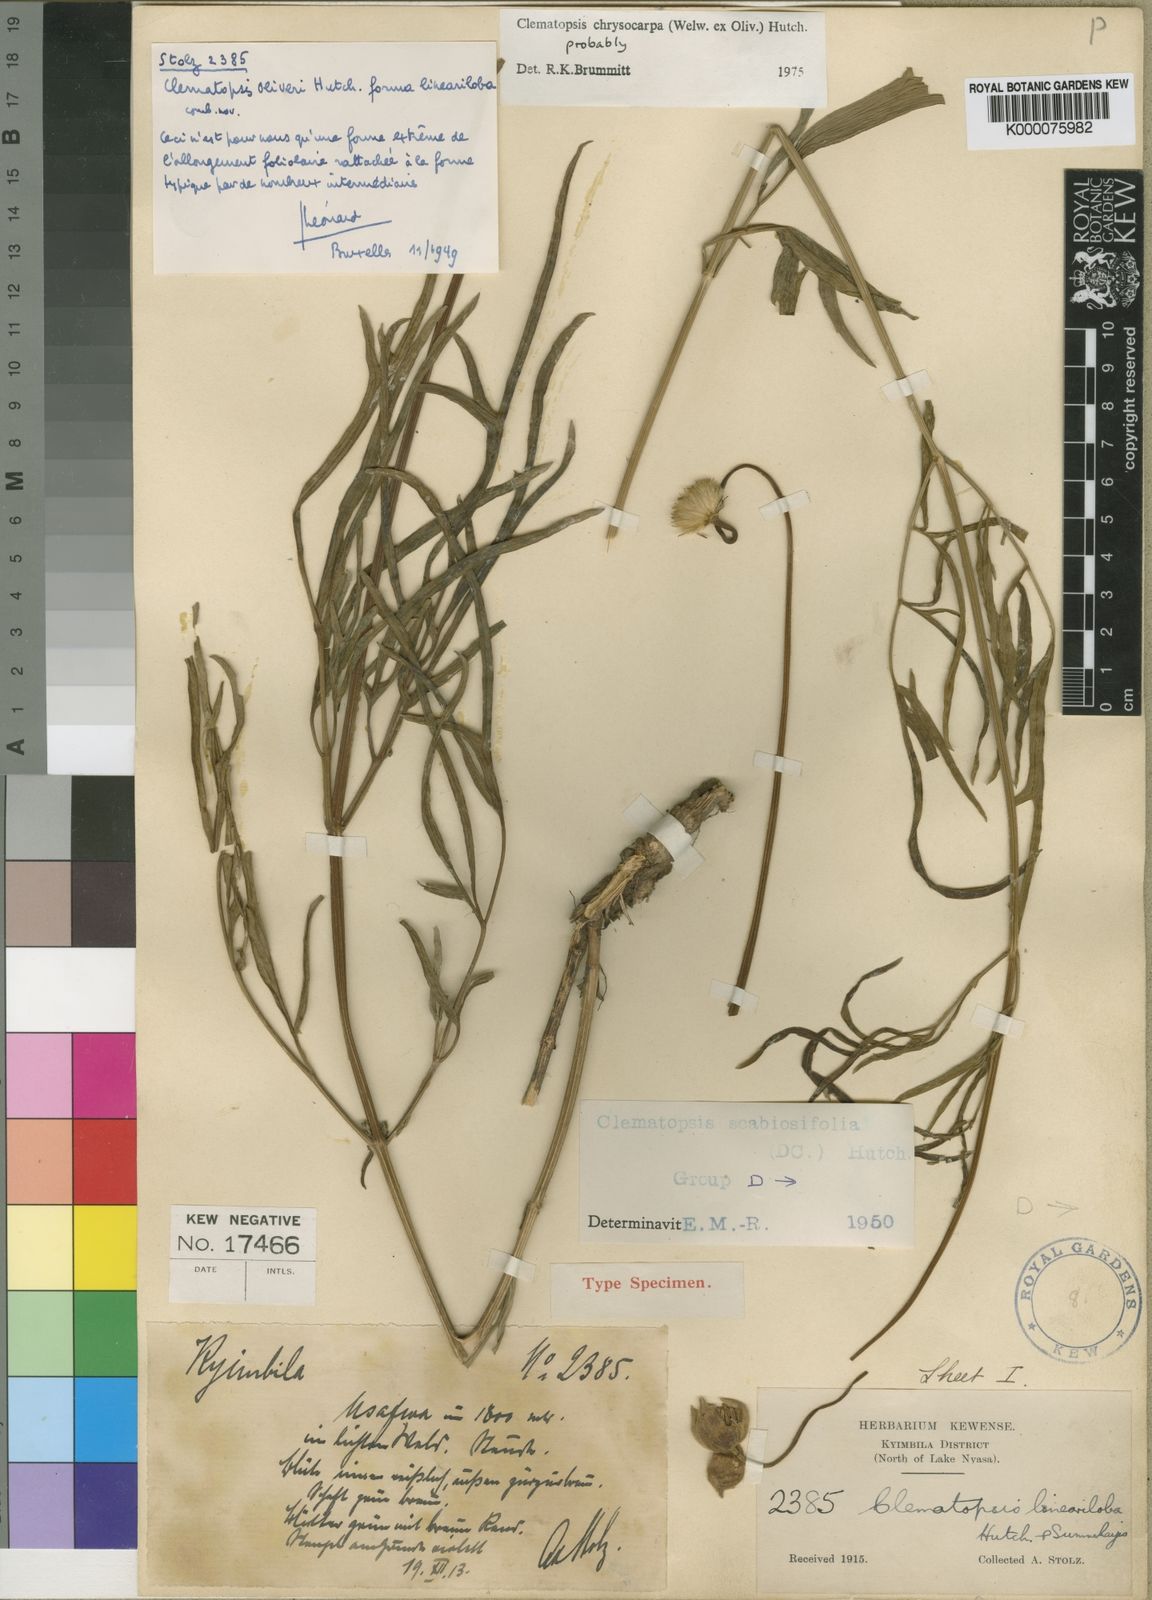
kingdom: Plantae
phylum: Tracheophyta
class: Magnoliopsida
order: Ranunculales
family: Ranunculaceae
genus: Clematis
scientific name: Clematis chrysocarpa
